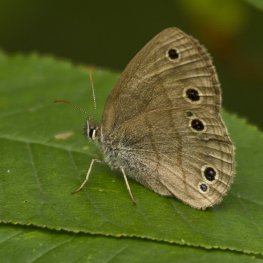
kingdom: Animalia
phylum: Arthropoda
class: Insecta
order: Lepidoptera
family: Nymphalidae
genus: Euptychia
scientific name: Euptychia cymela
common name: Little Wood Satyr
